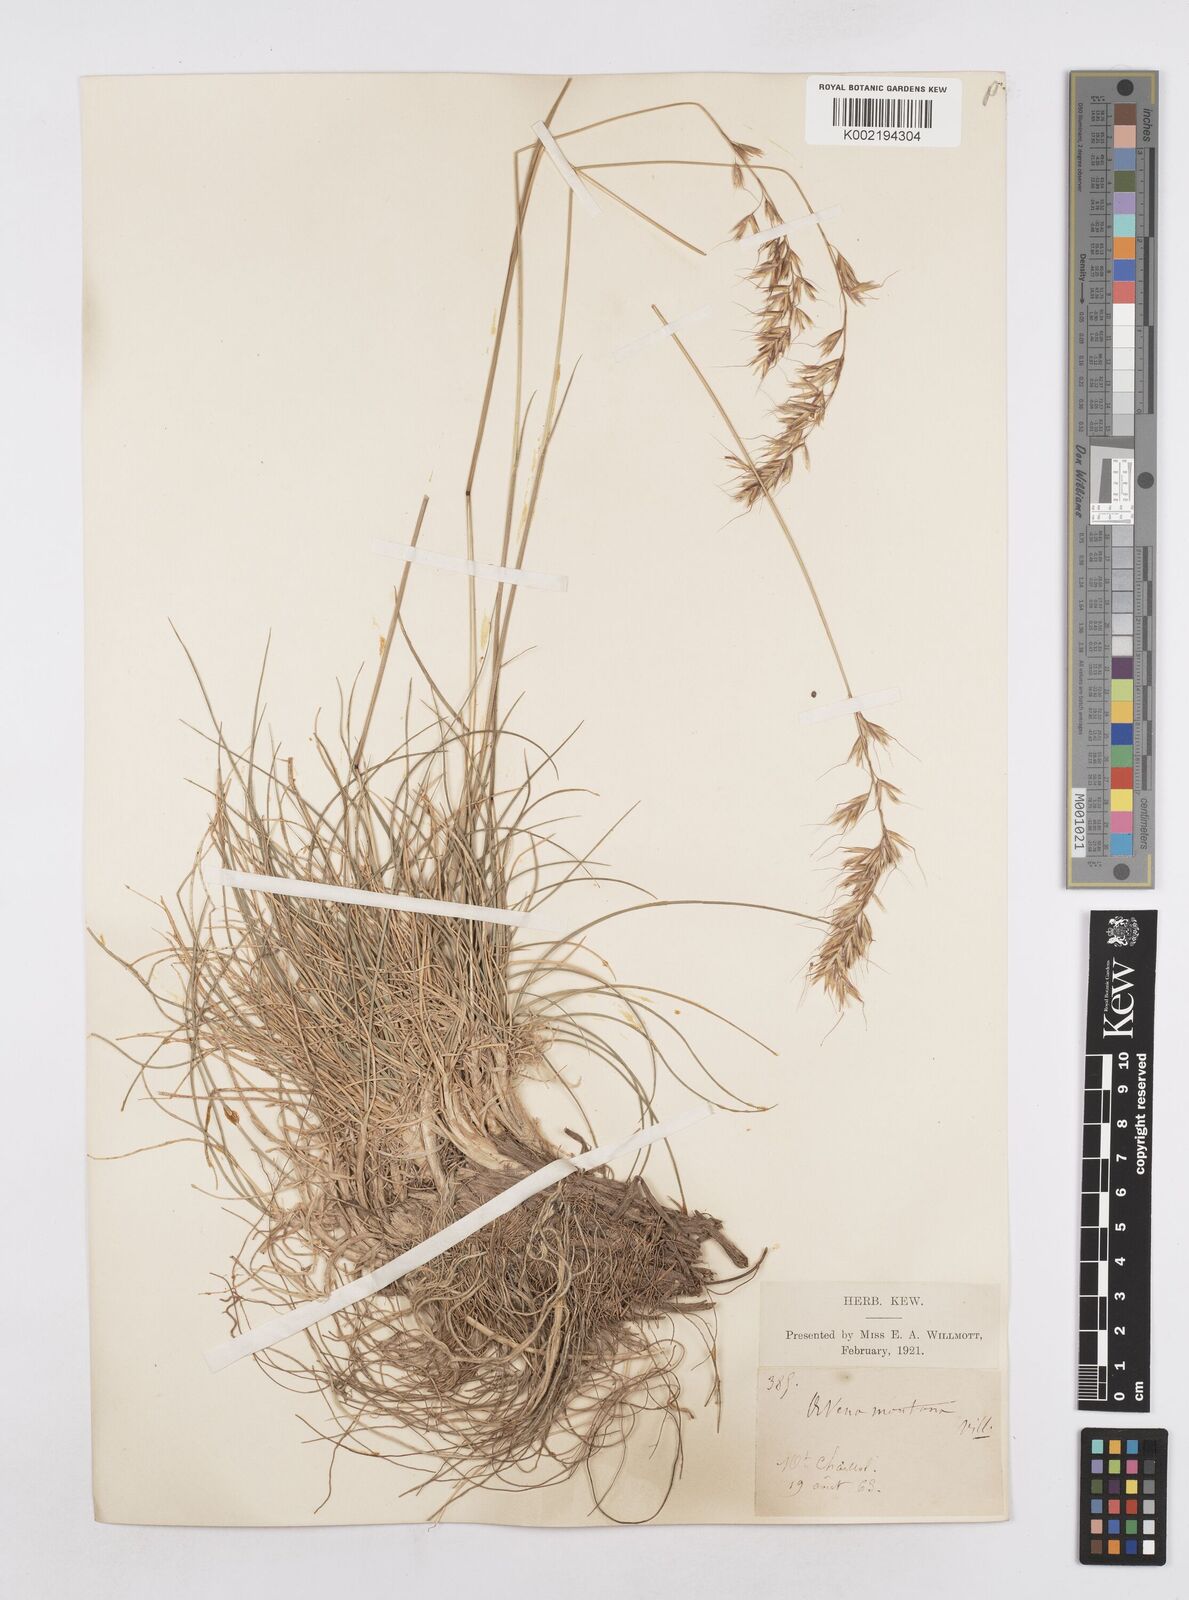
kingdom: Plantae
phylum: Tracheophyta
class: Liliopsida
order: Poales
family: Poaceae
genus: Helictotrichon
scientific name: Helictotrichon sedenense
